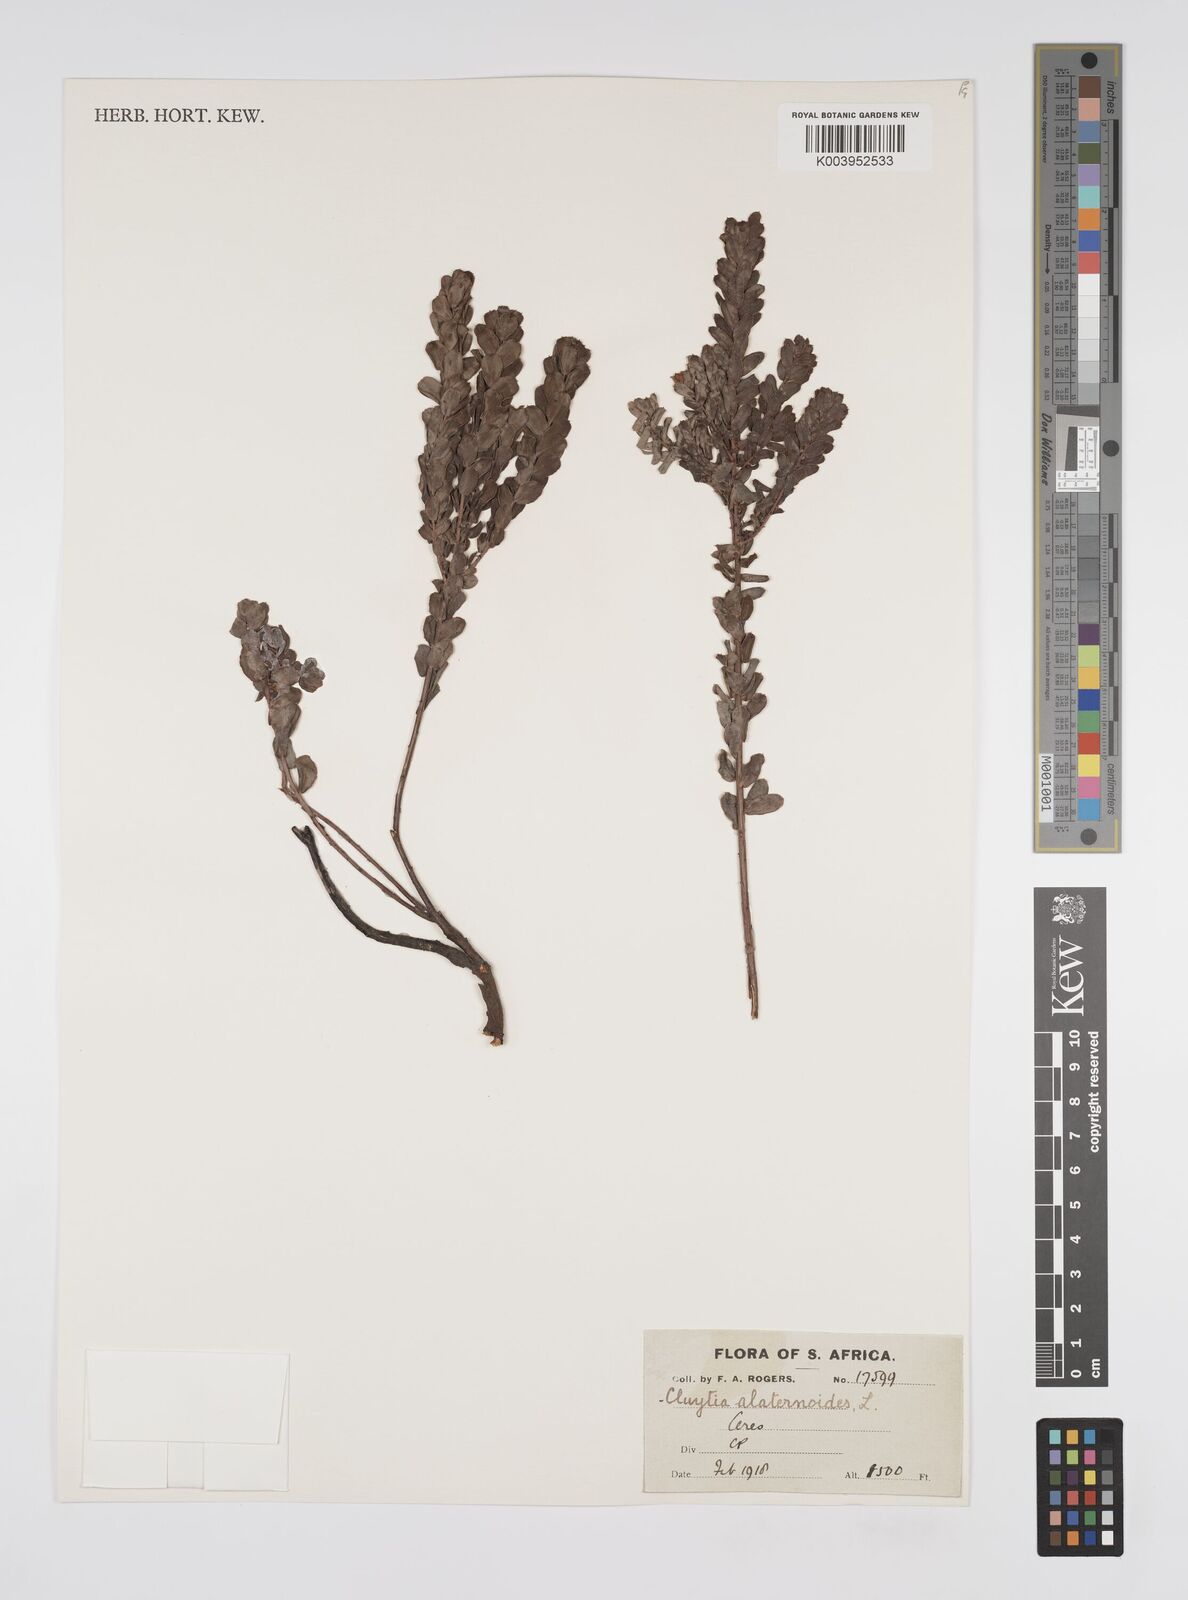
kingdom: Plantae
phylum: Tracheophyta
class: Magnoliopsida
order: Malpighiales
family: Peraceae
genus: Clutia
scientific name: Clutia
